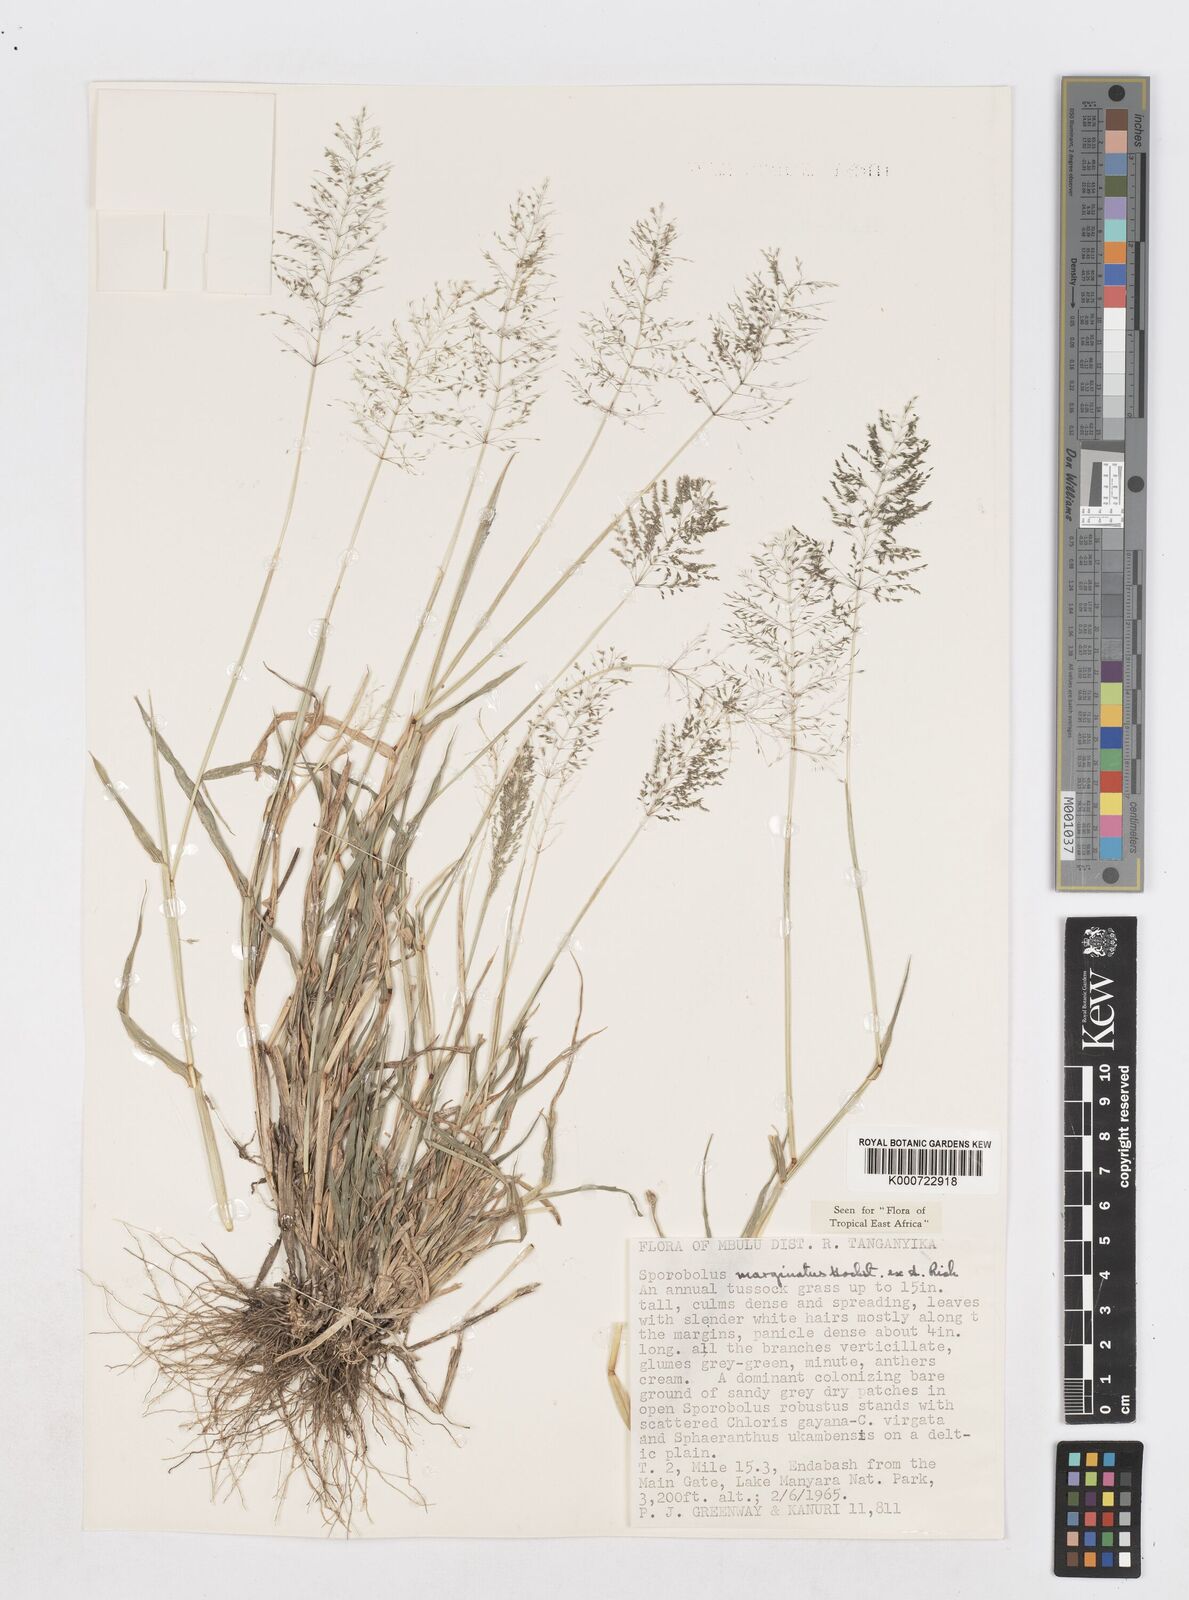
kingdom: Plantae
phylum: Tracheophyta
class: Liliopsida
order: Poales
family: Poaceae
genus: Sporobolus
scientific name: Sporobolus ioclados
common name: Pan dropseed
